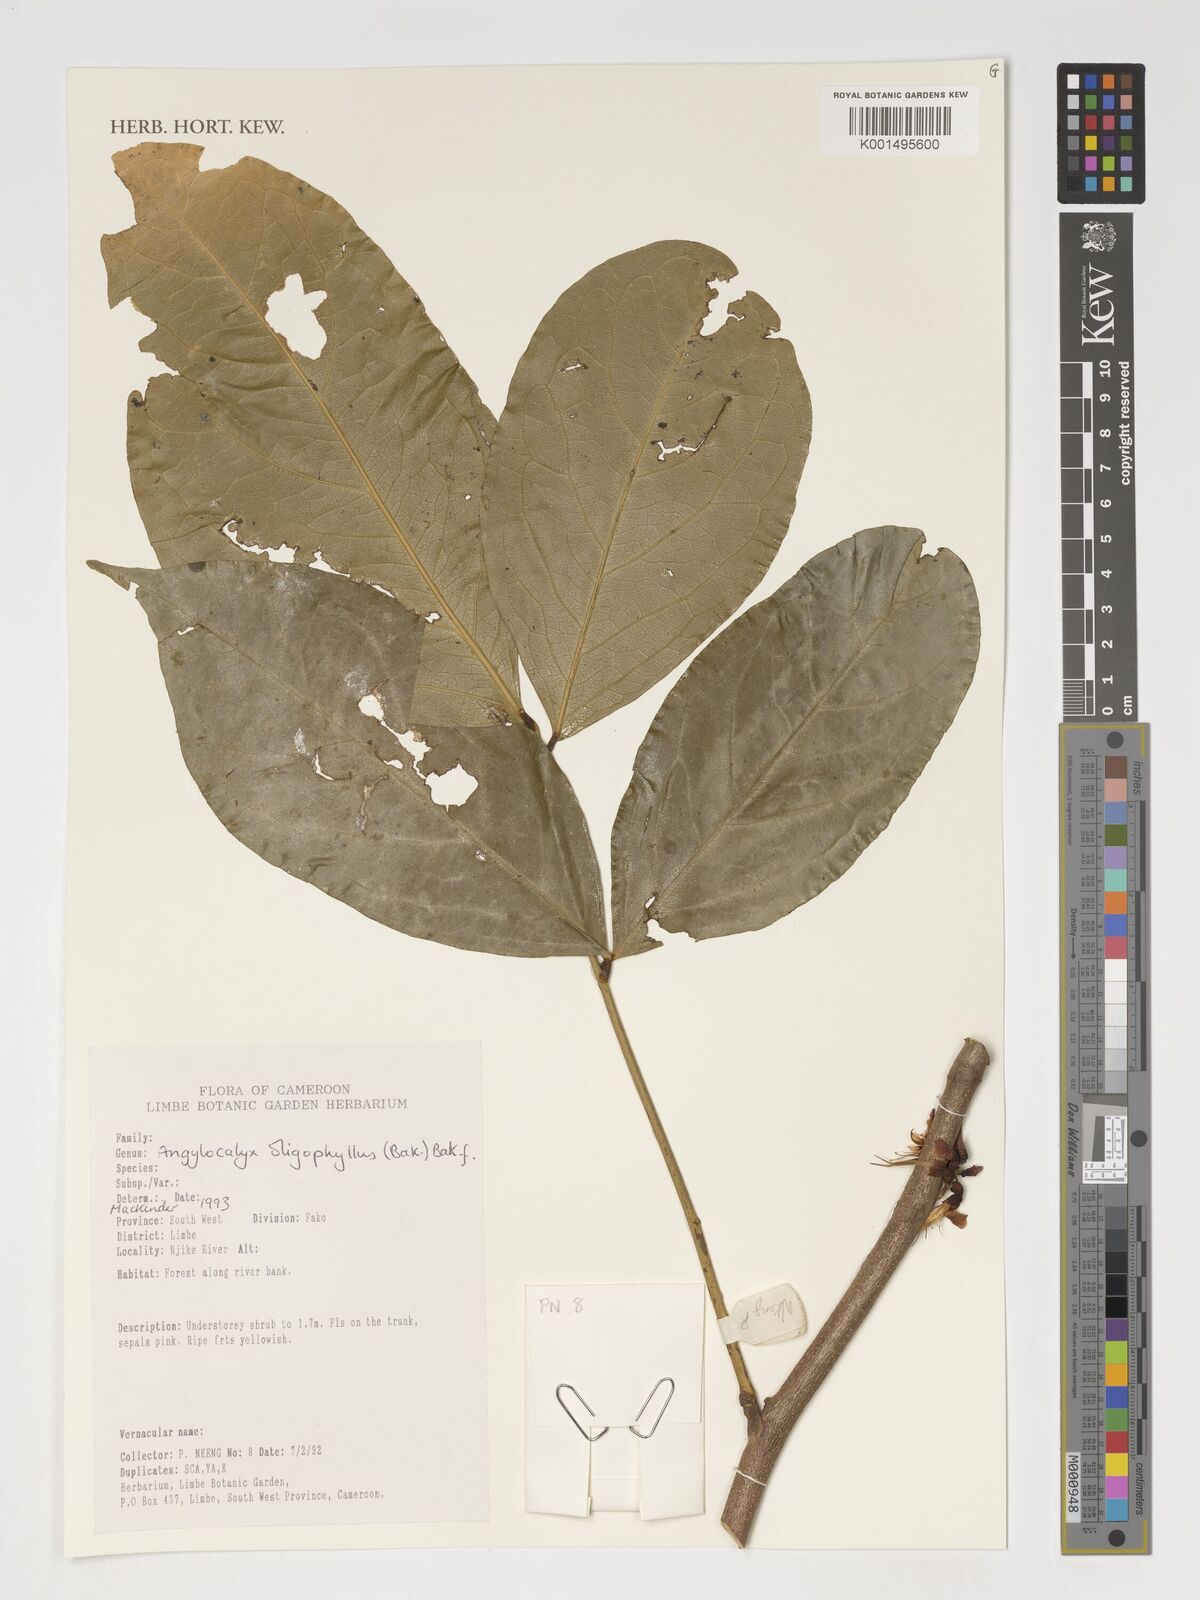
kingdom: Plantae
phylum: Tracheophyta
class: Magnoliopsida
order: Fabales
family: Fabaceae
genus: Angylocalyx
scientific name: Angylocalyx oligophyllus
